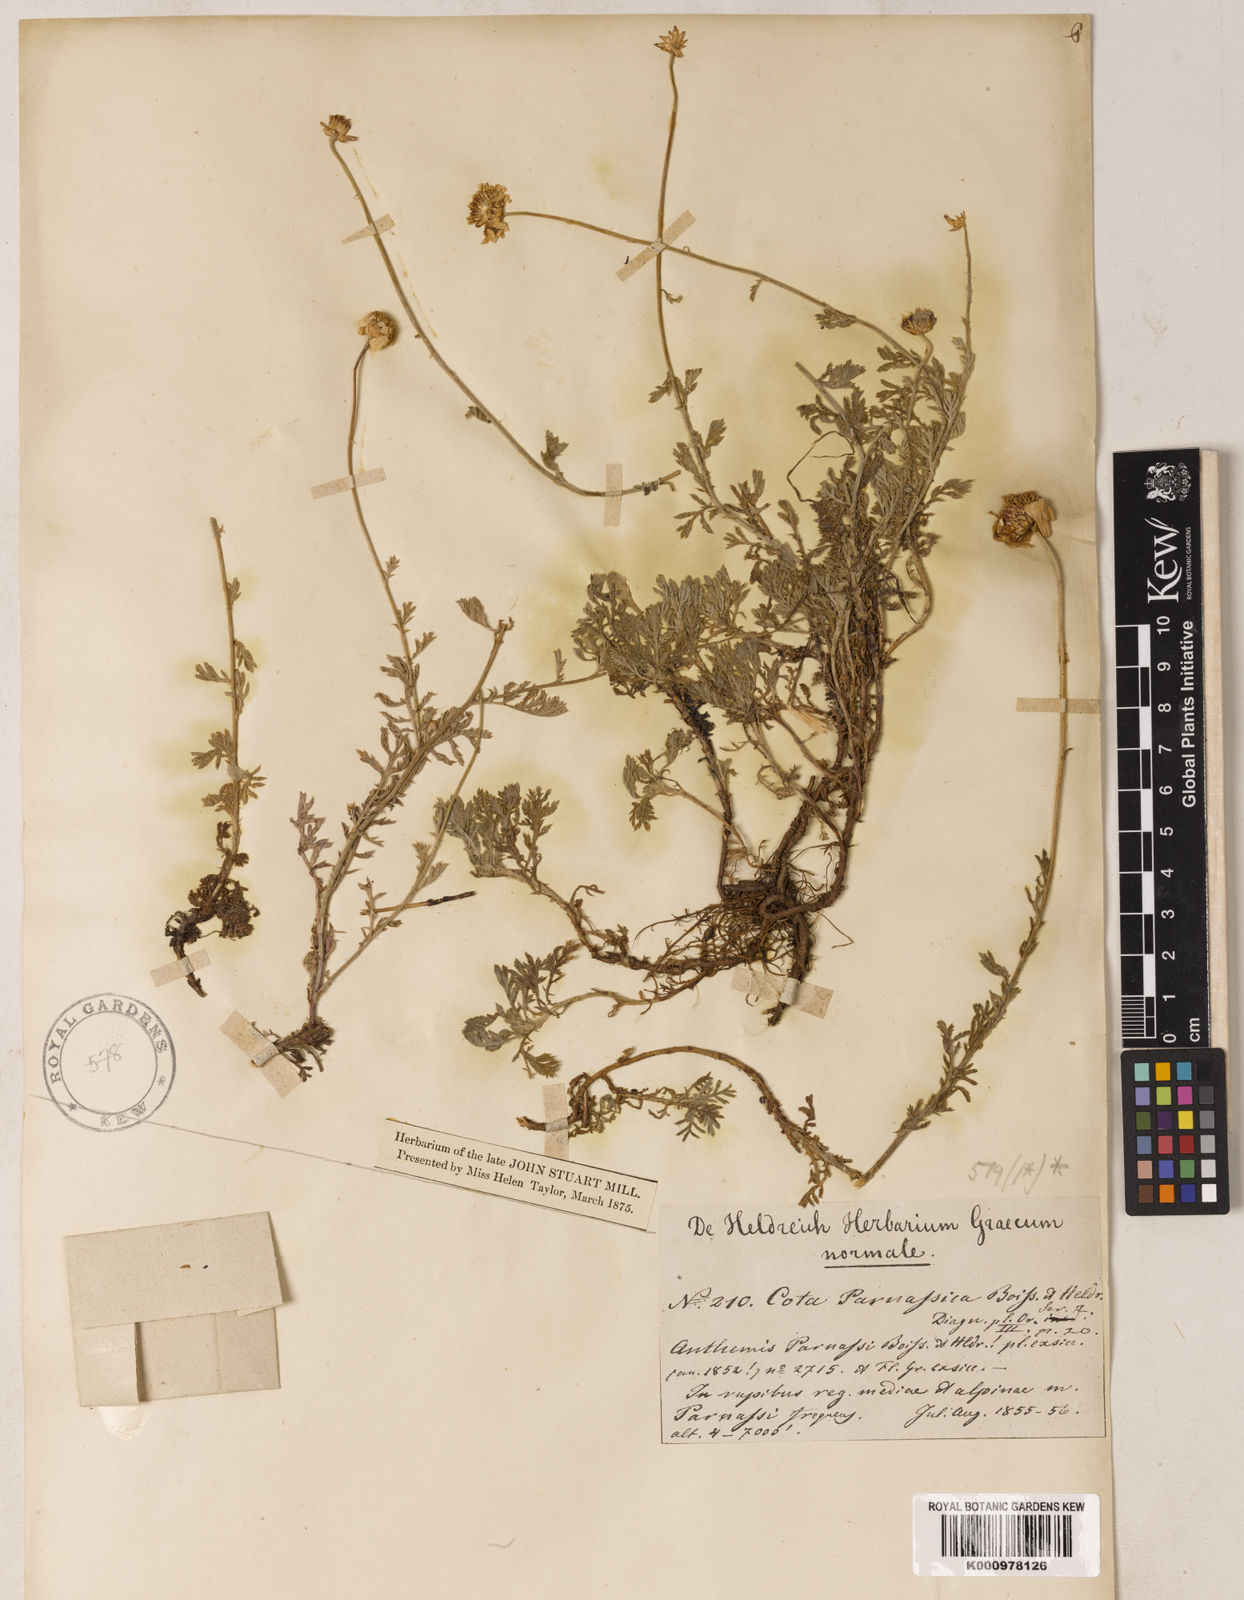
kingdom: Plantae
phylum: Tracheophyta
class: Magnoliopsida
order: Asterales
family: Asteraceae
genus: Cota
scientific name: Cota tinctoria
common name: Golden chamomile
